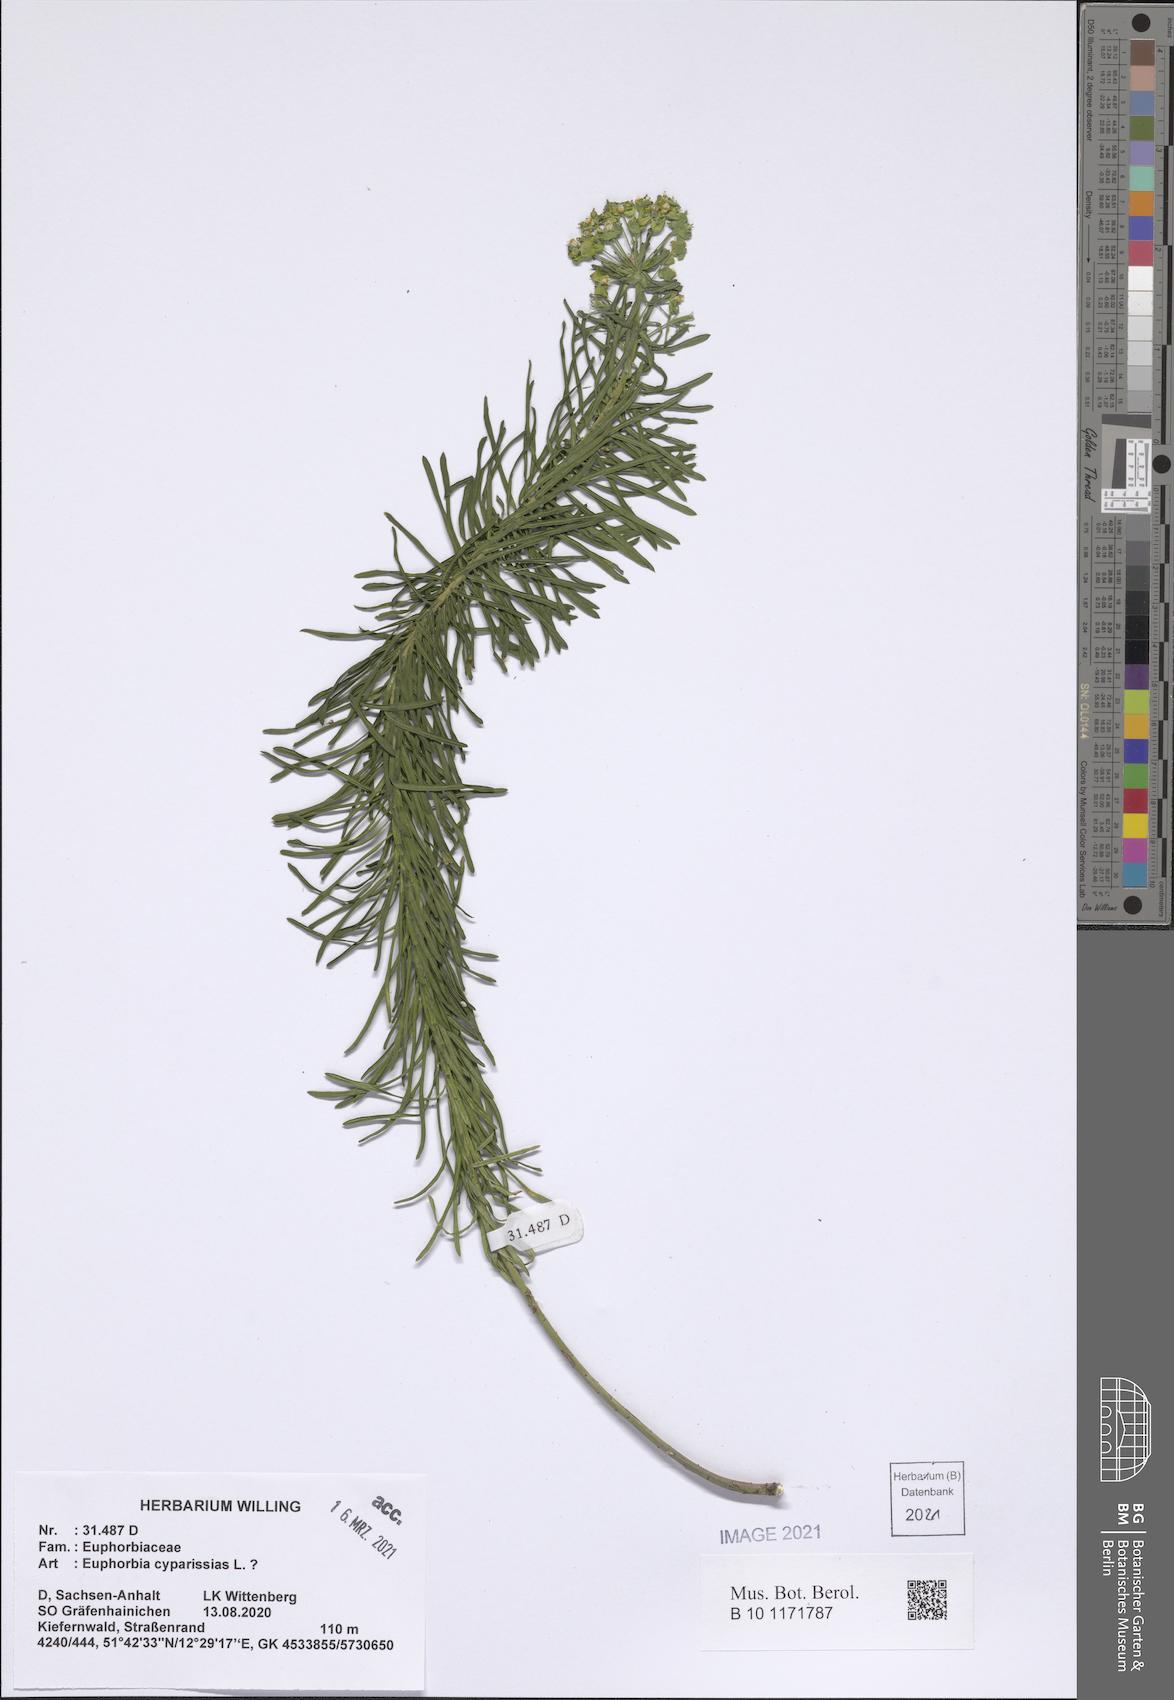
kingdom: Plantae
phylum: Tracheophyta
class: Magnoliopsida
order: Malpighiales
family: Euphorbiaceae
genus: Euphorbia
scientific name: Euphorbia cyparissias
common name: Cypress spurge
